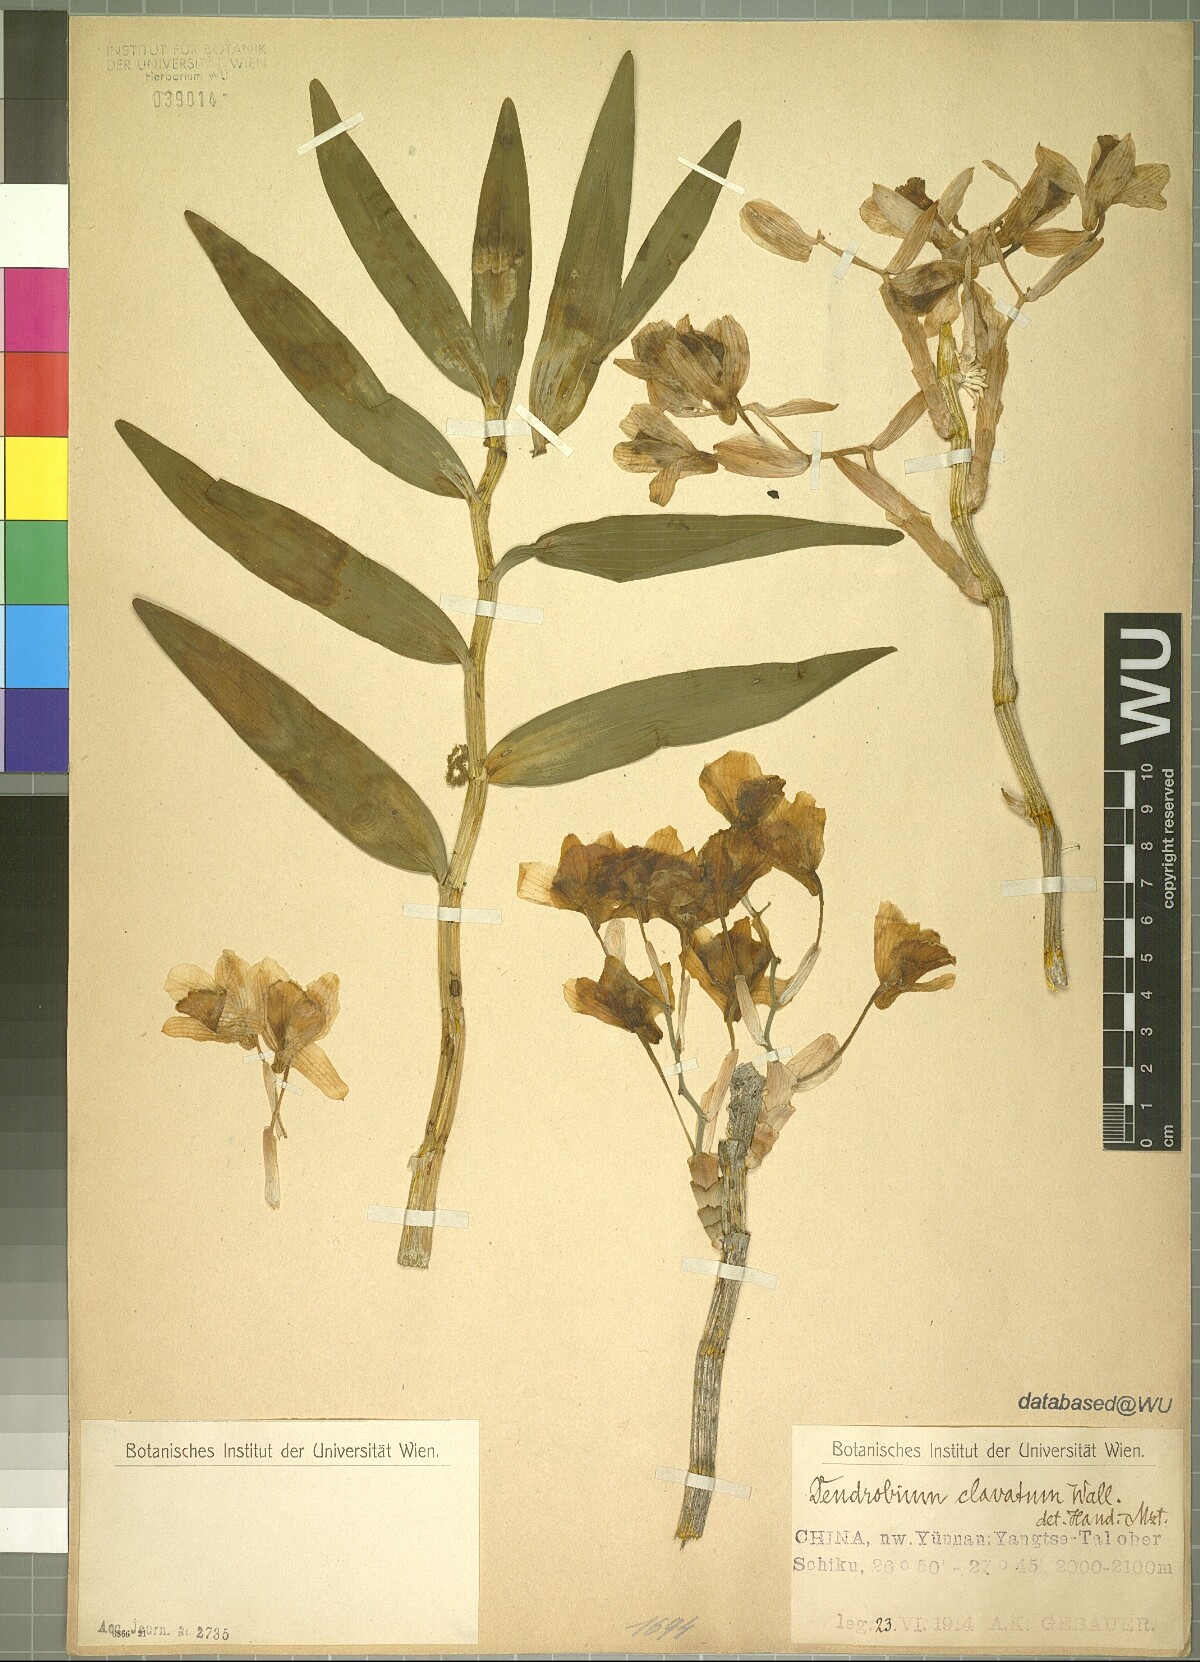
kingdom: Plantae
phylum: Tracheophyta
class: Liliopsida
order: Asparagales
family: Orchidaceae
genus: Dendrobium
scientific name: Dendrobium clavatum
